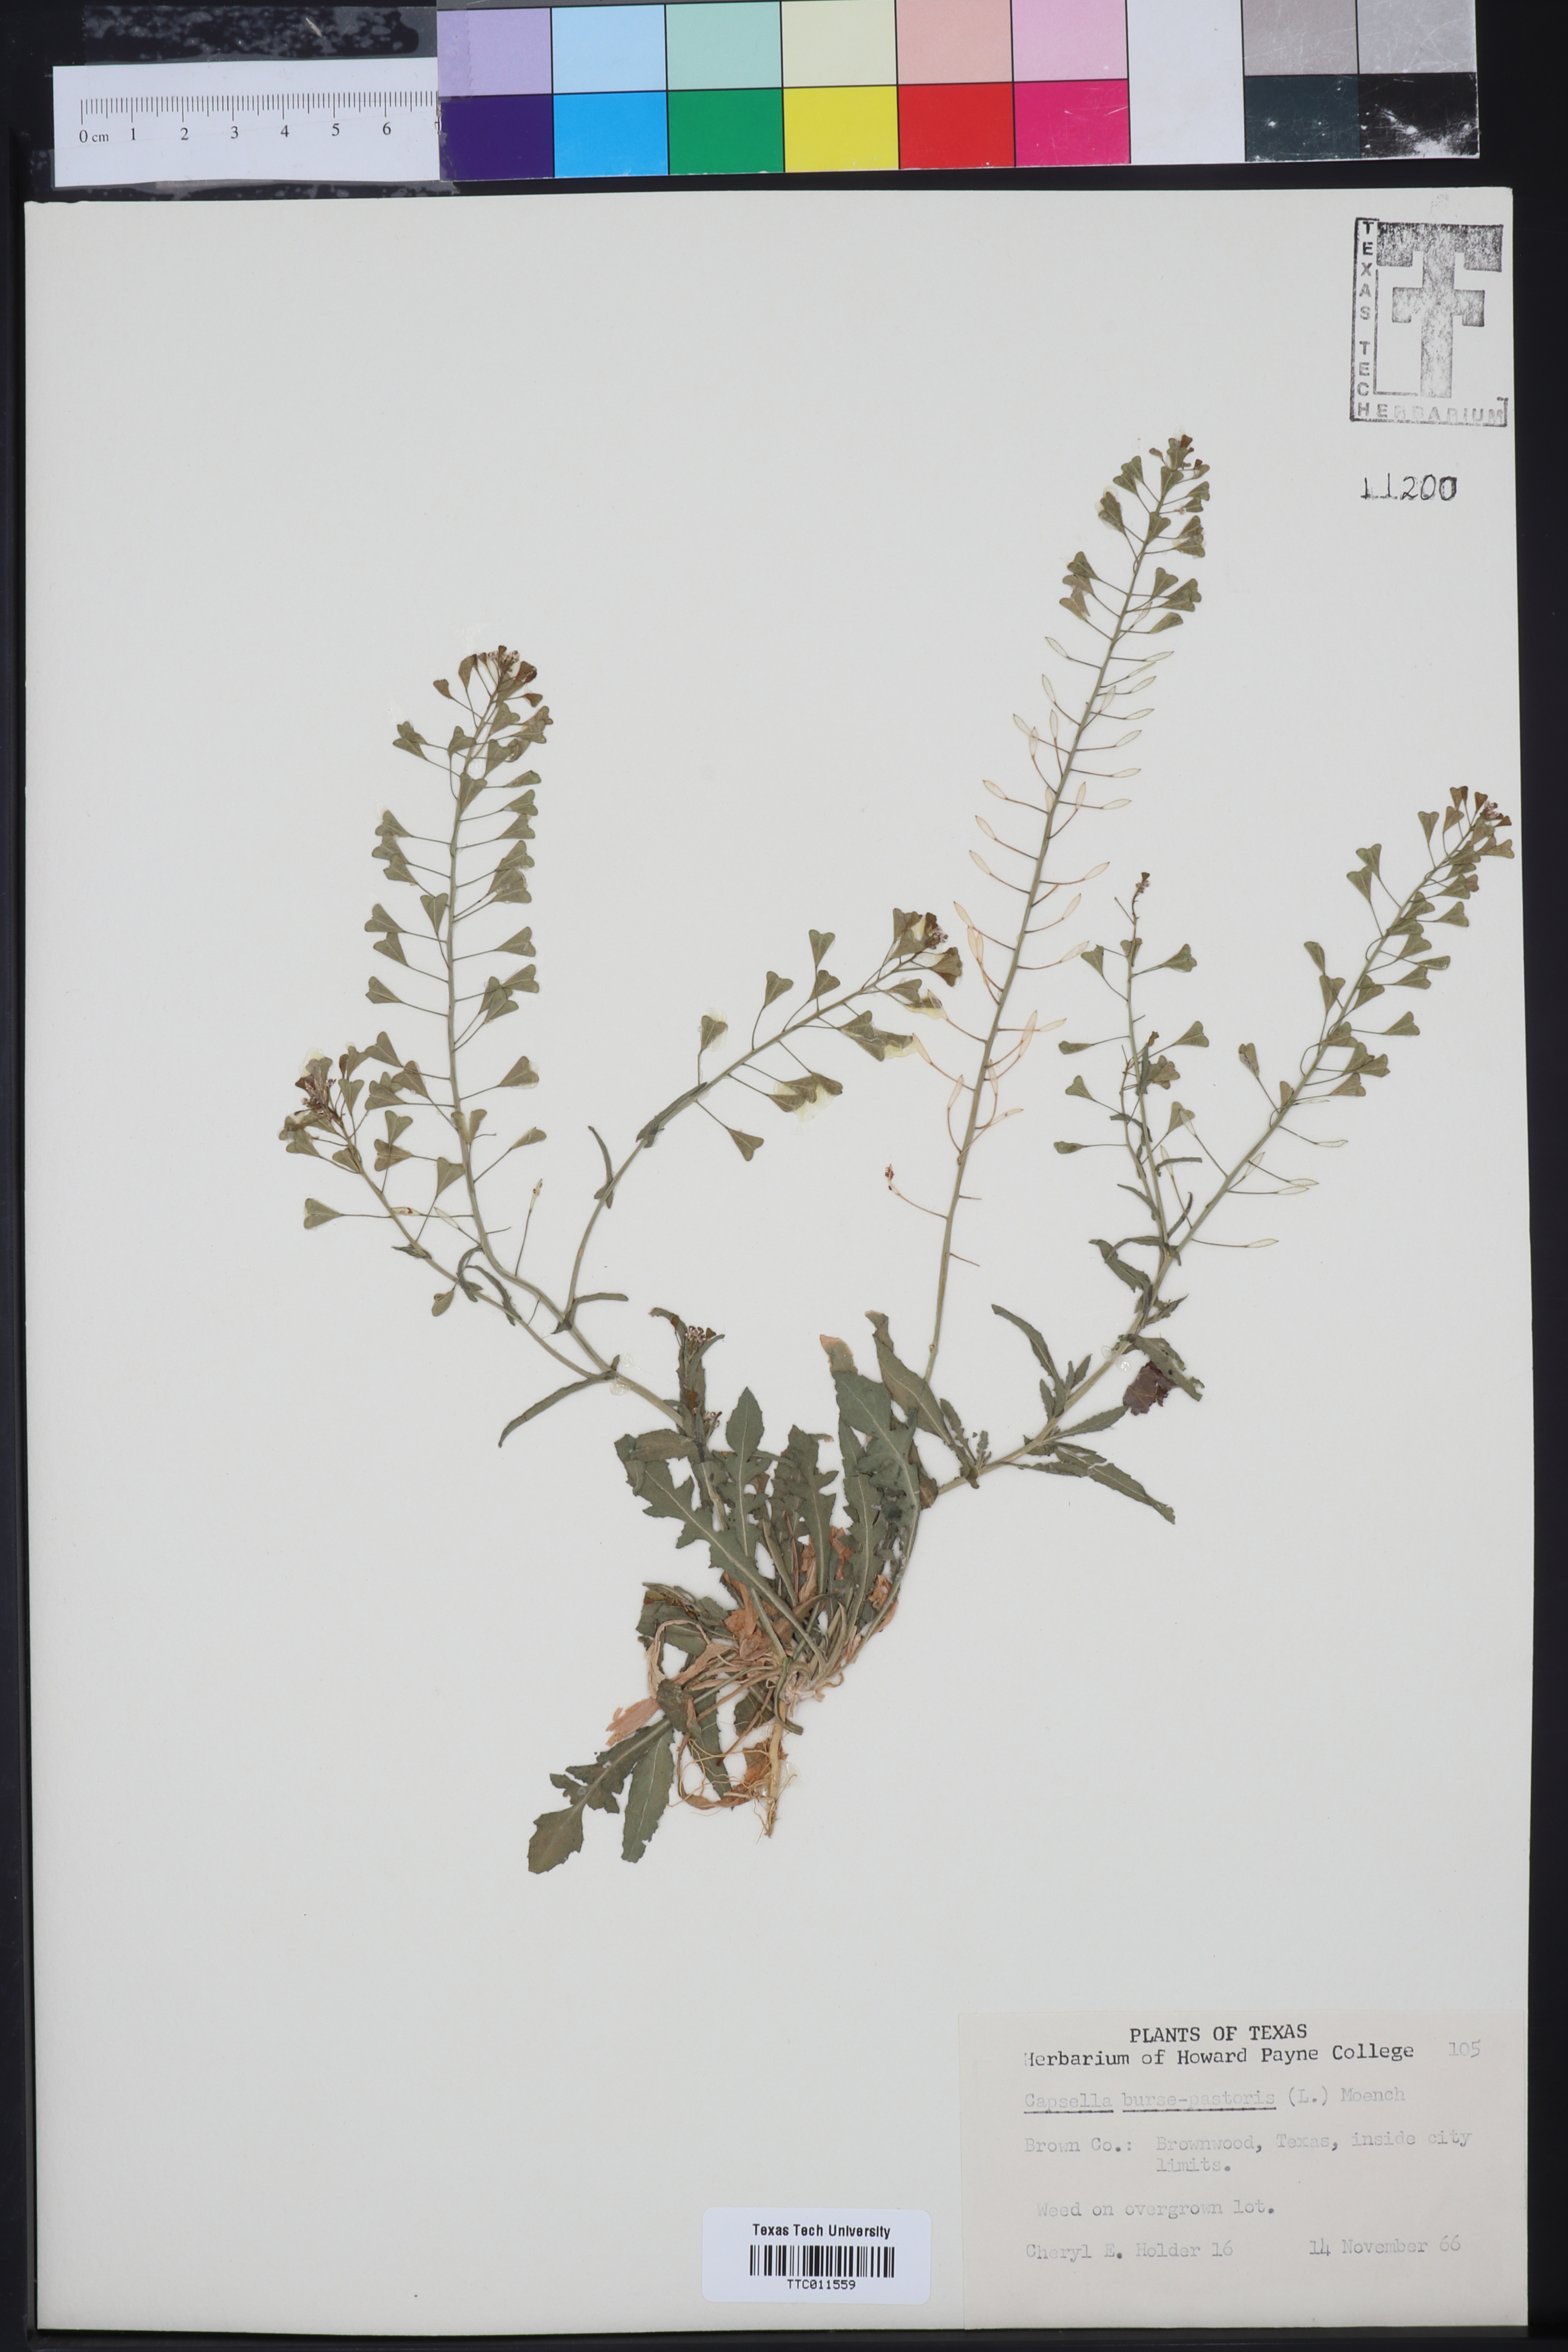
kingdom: Plantae
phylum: Tracheophyta
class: Magnoliopsida
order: Brassicales
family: Brassicaceae
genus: Capsella
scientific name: Capsella bursa-pastoris
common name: Shepherd's purse
